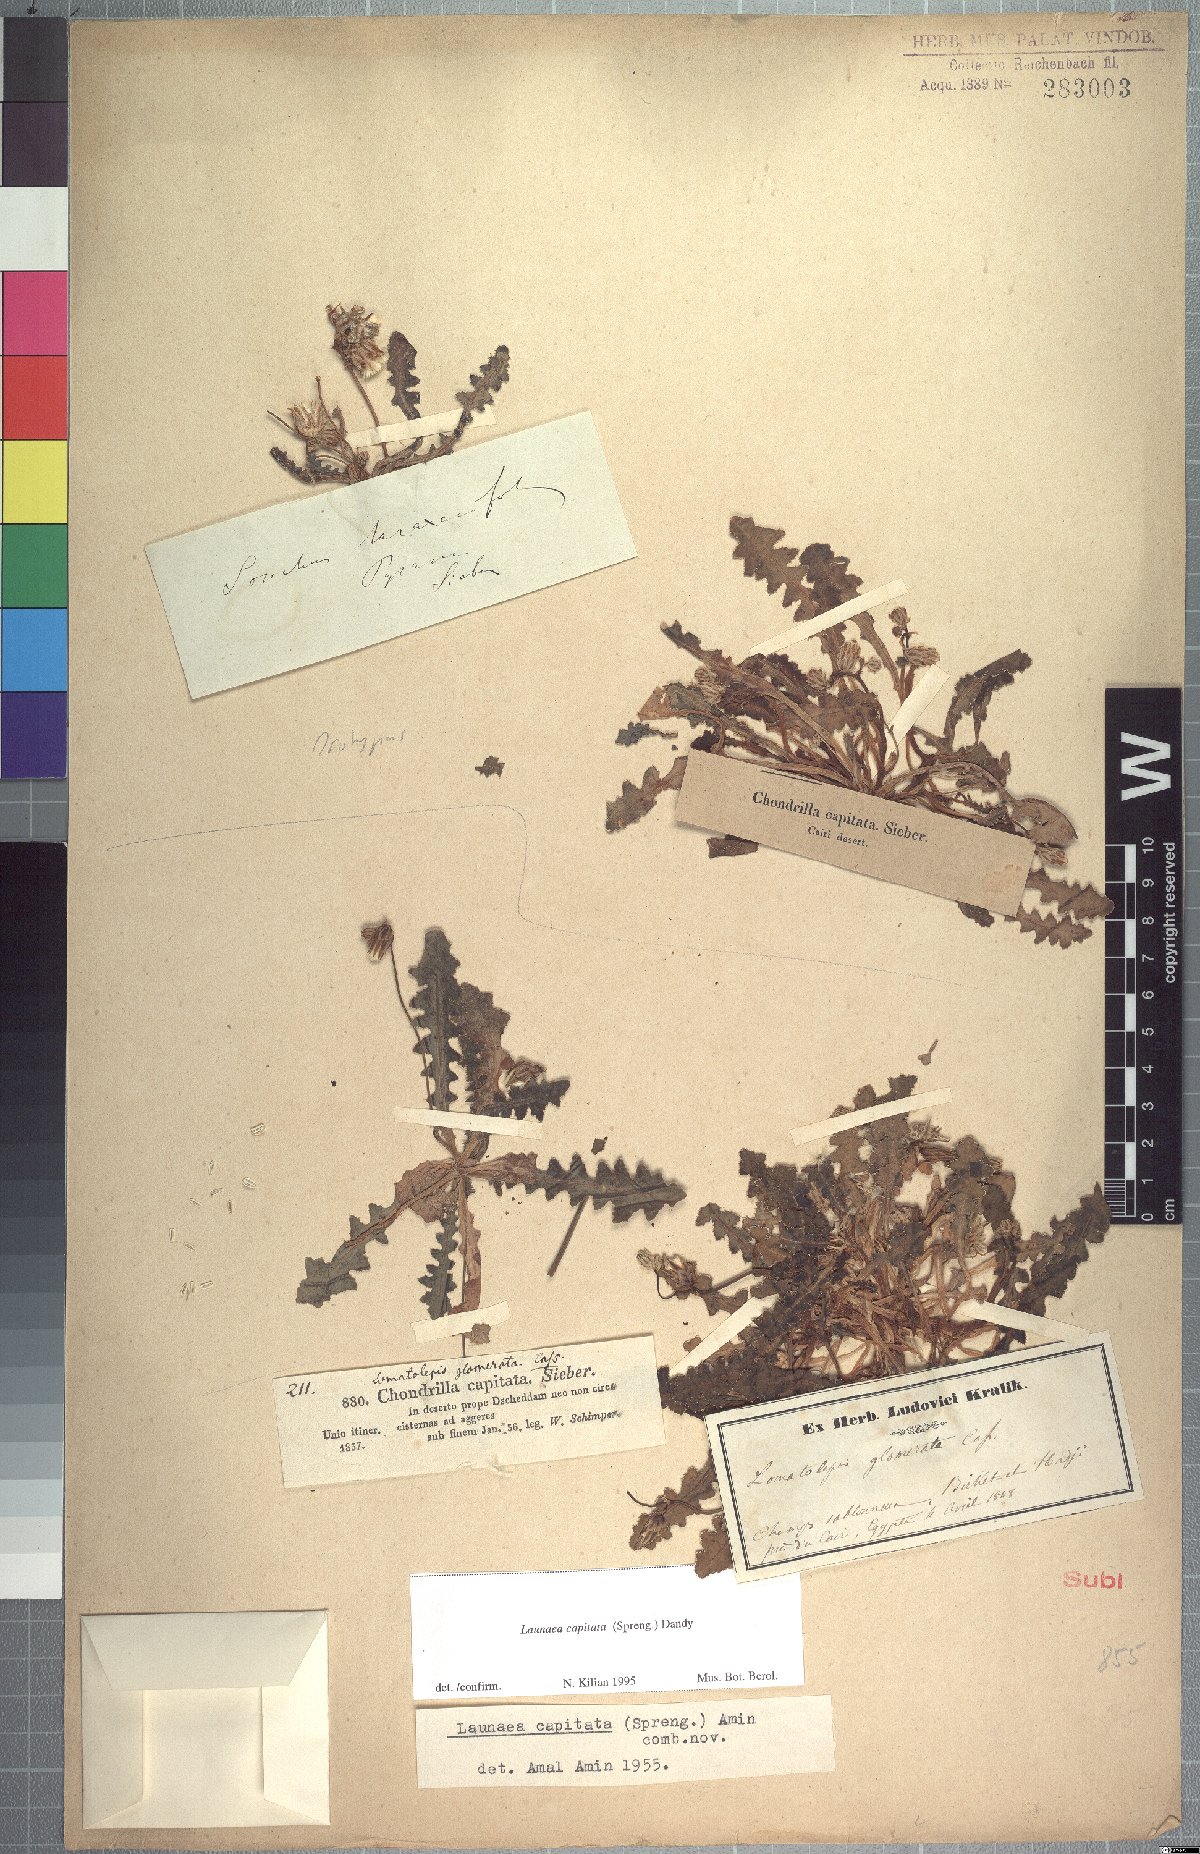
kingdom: Plantae
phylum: Tracheophyta
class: Magnoliopsida
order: Asterales
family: Asteraceae
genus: Launaea
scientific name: Launaea capitata
